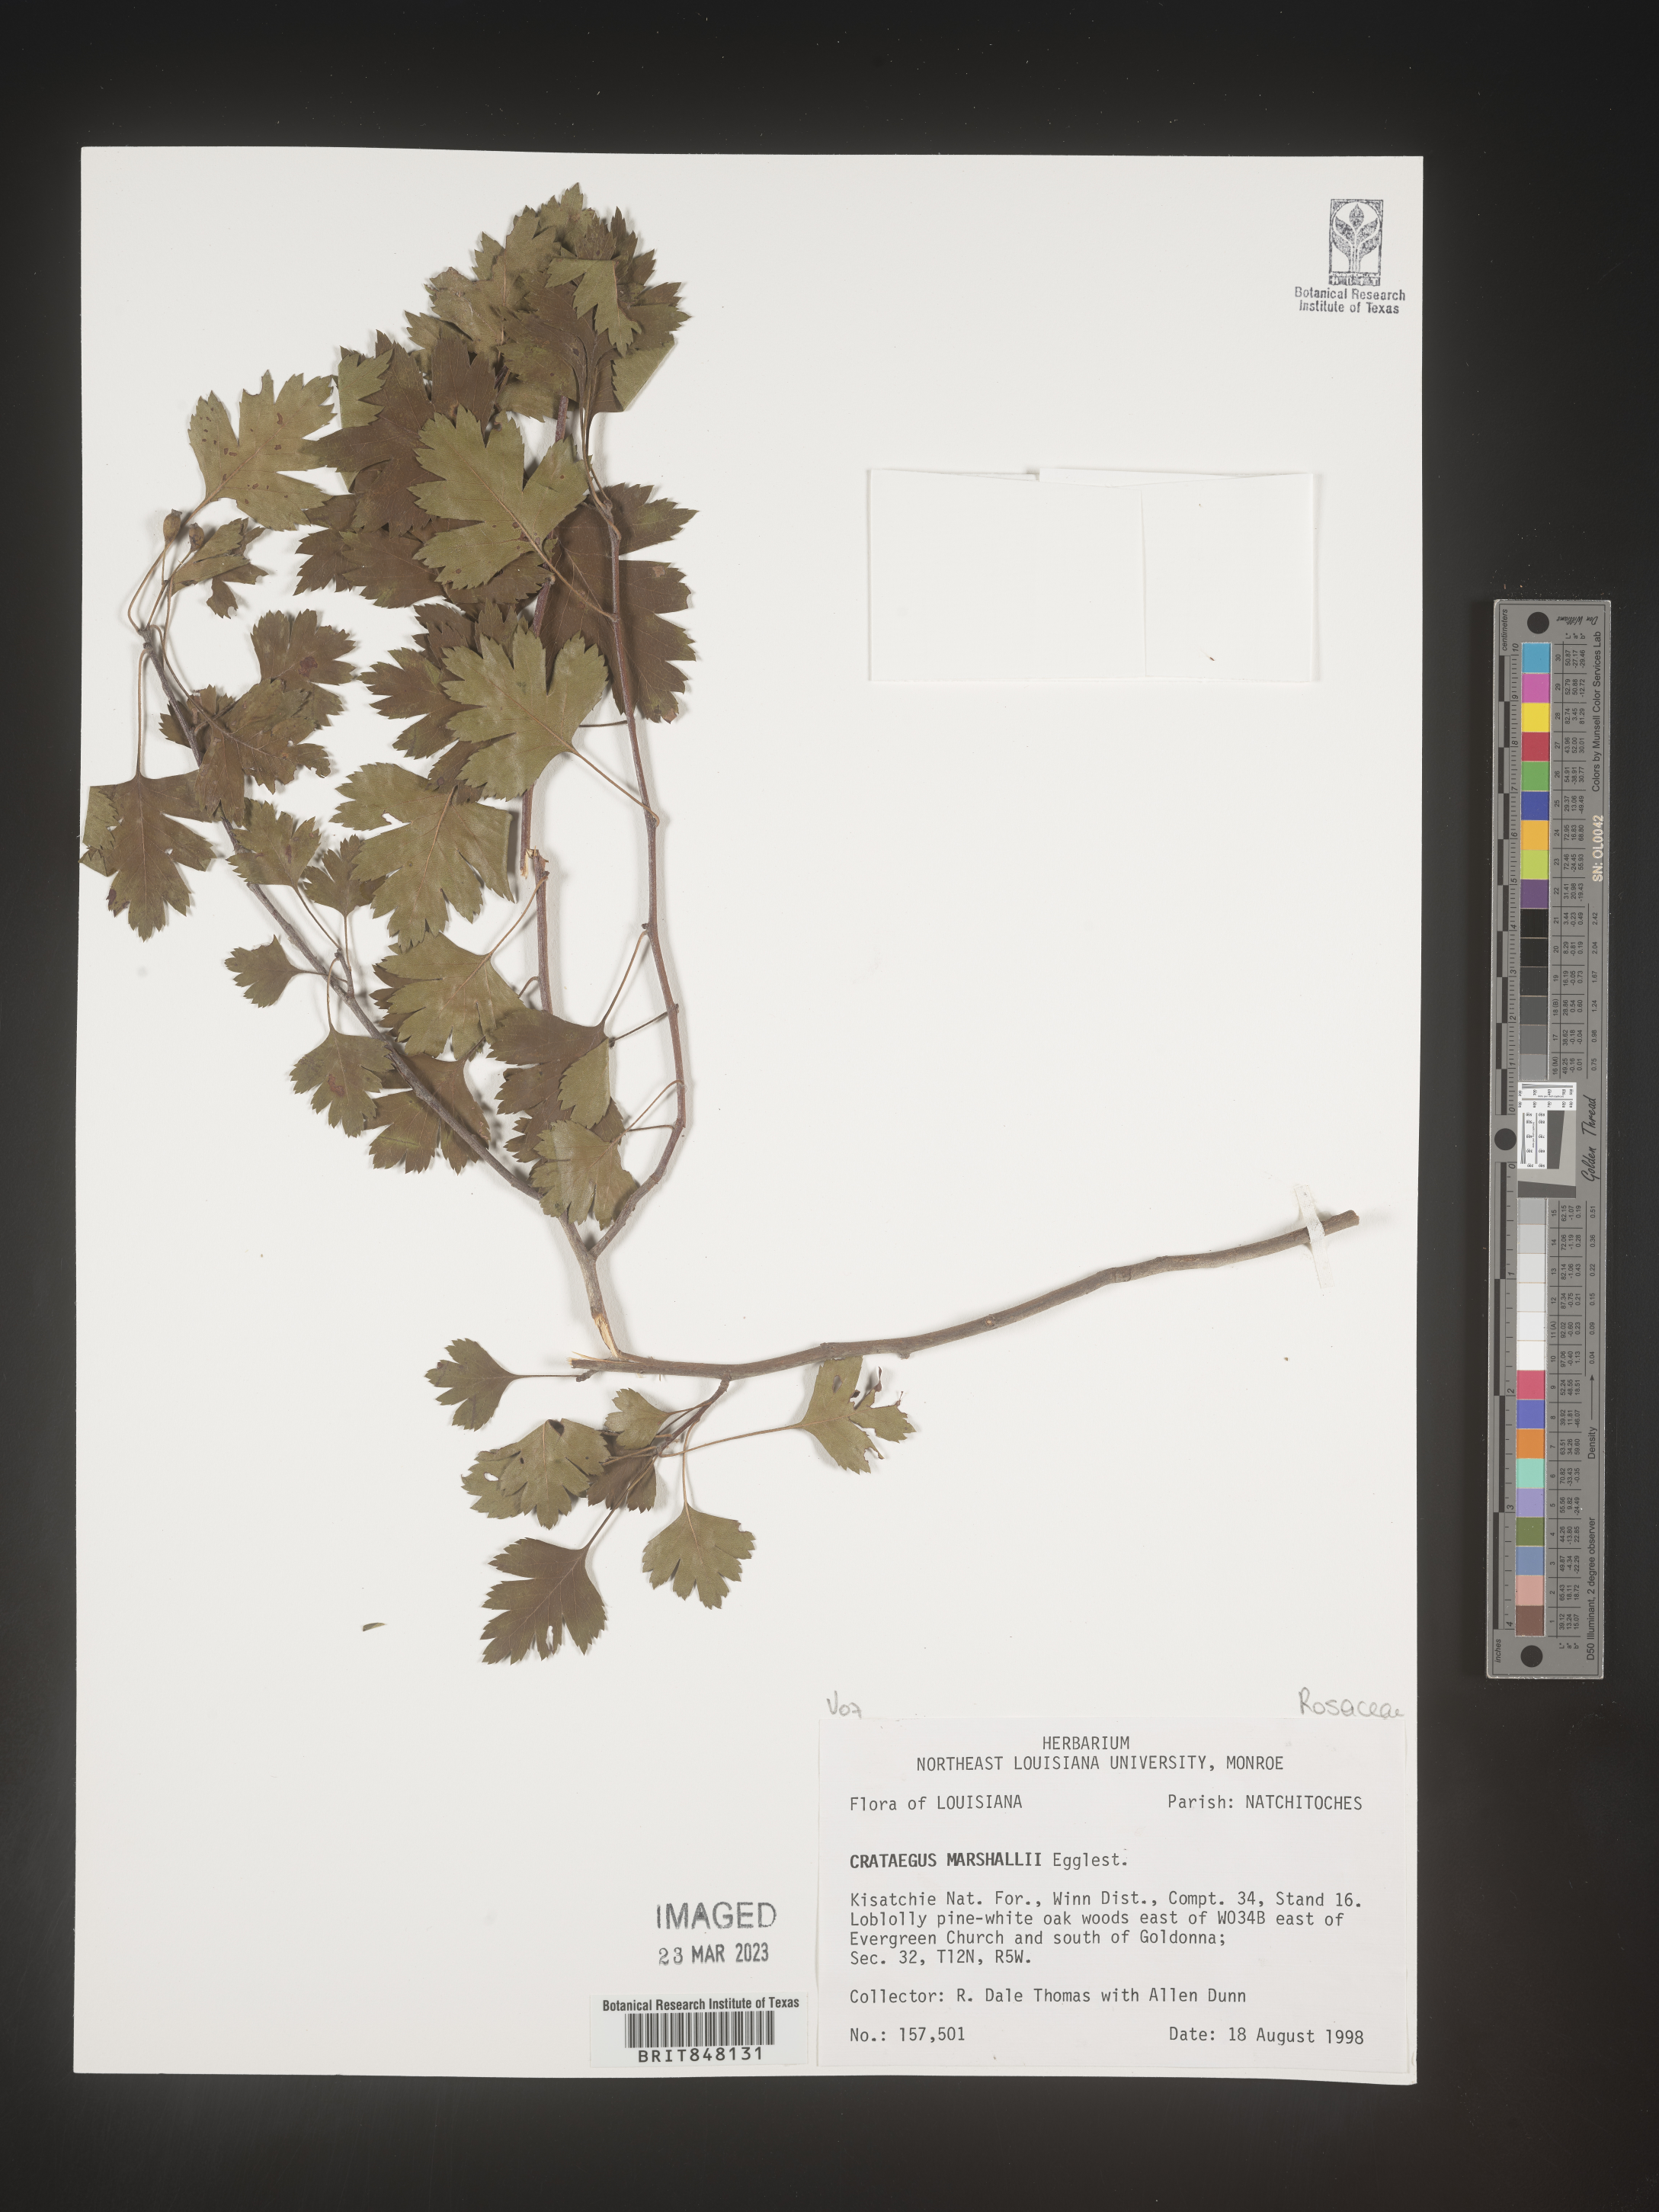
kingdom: Plantae
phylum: Tracheophyta
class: Magnoliopsida
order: Rosales
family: Rosaceae
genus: Crataegus
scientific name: Crataegus marshallii
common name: Parsley-hawthorn
